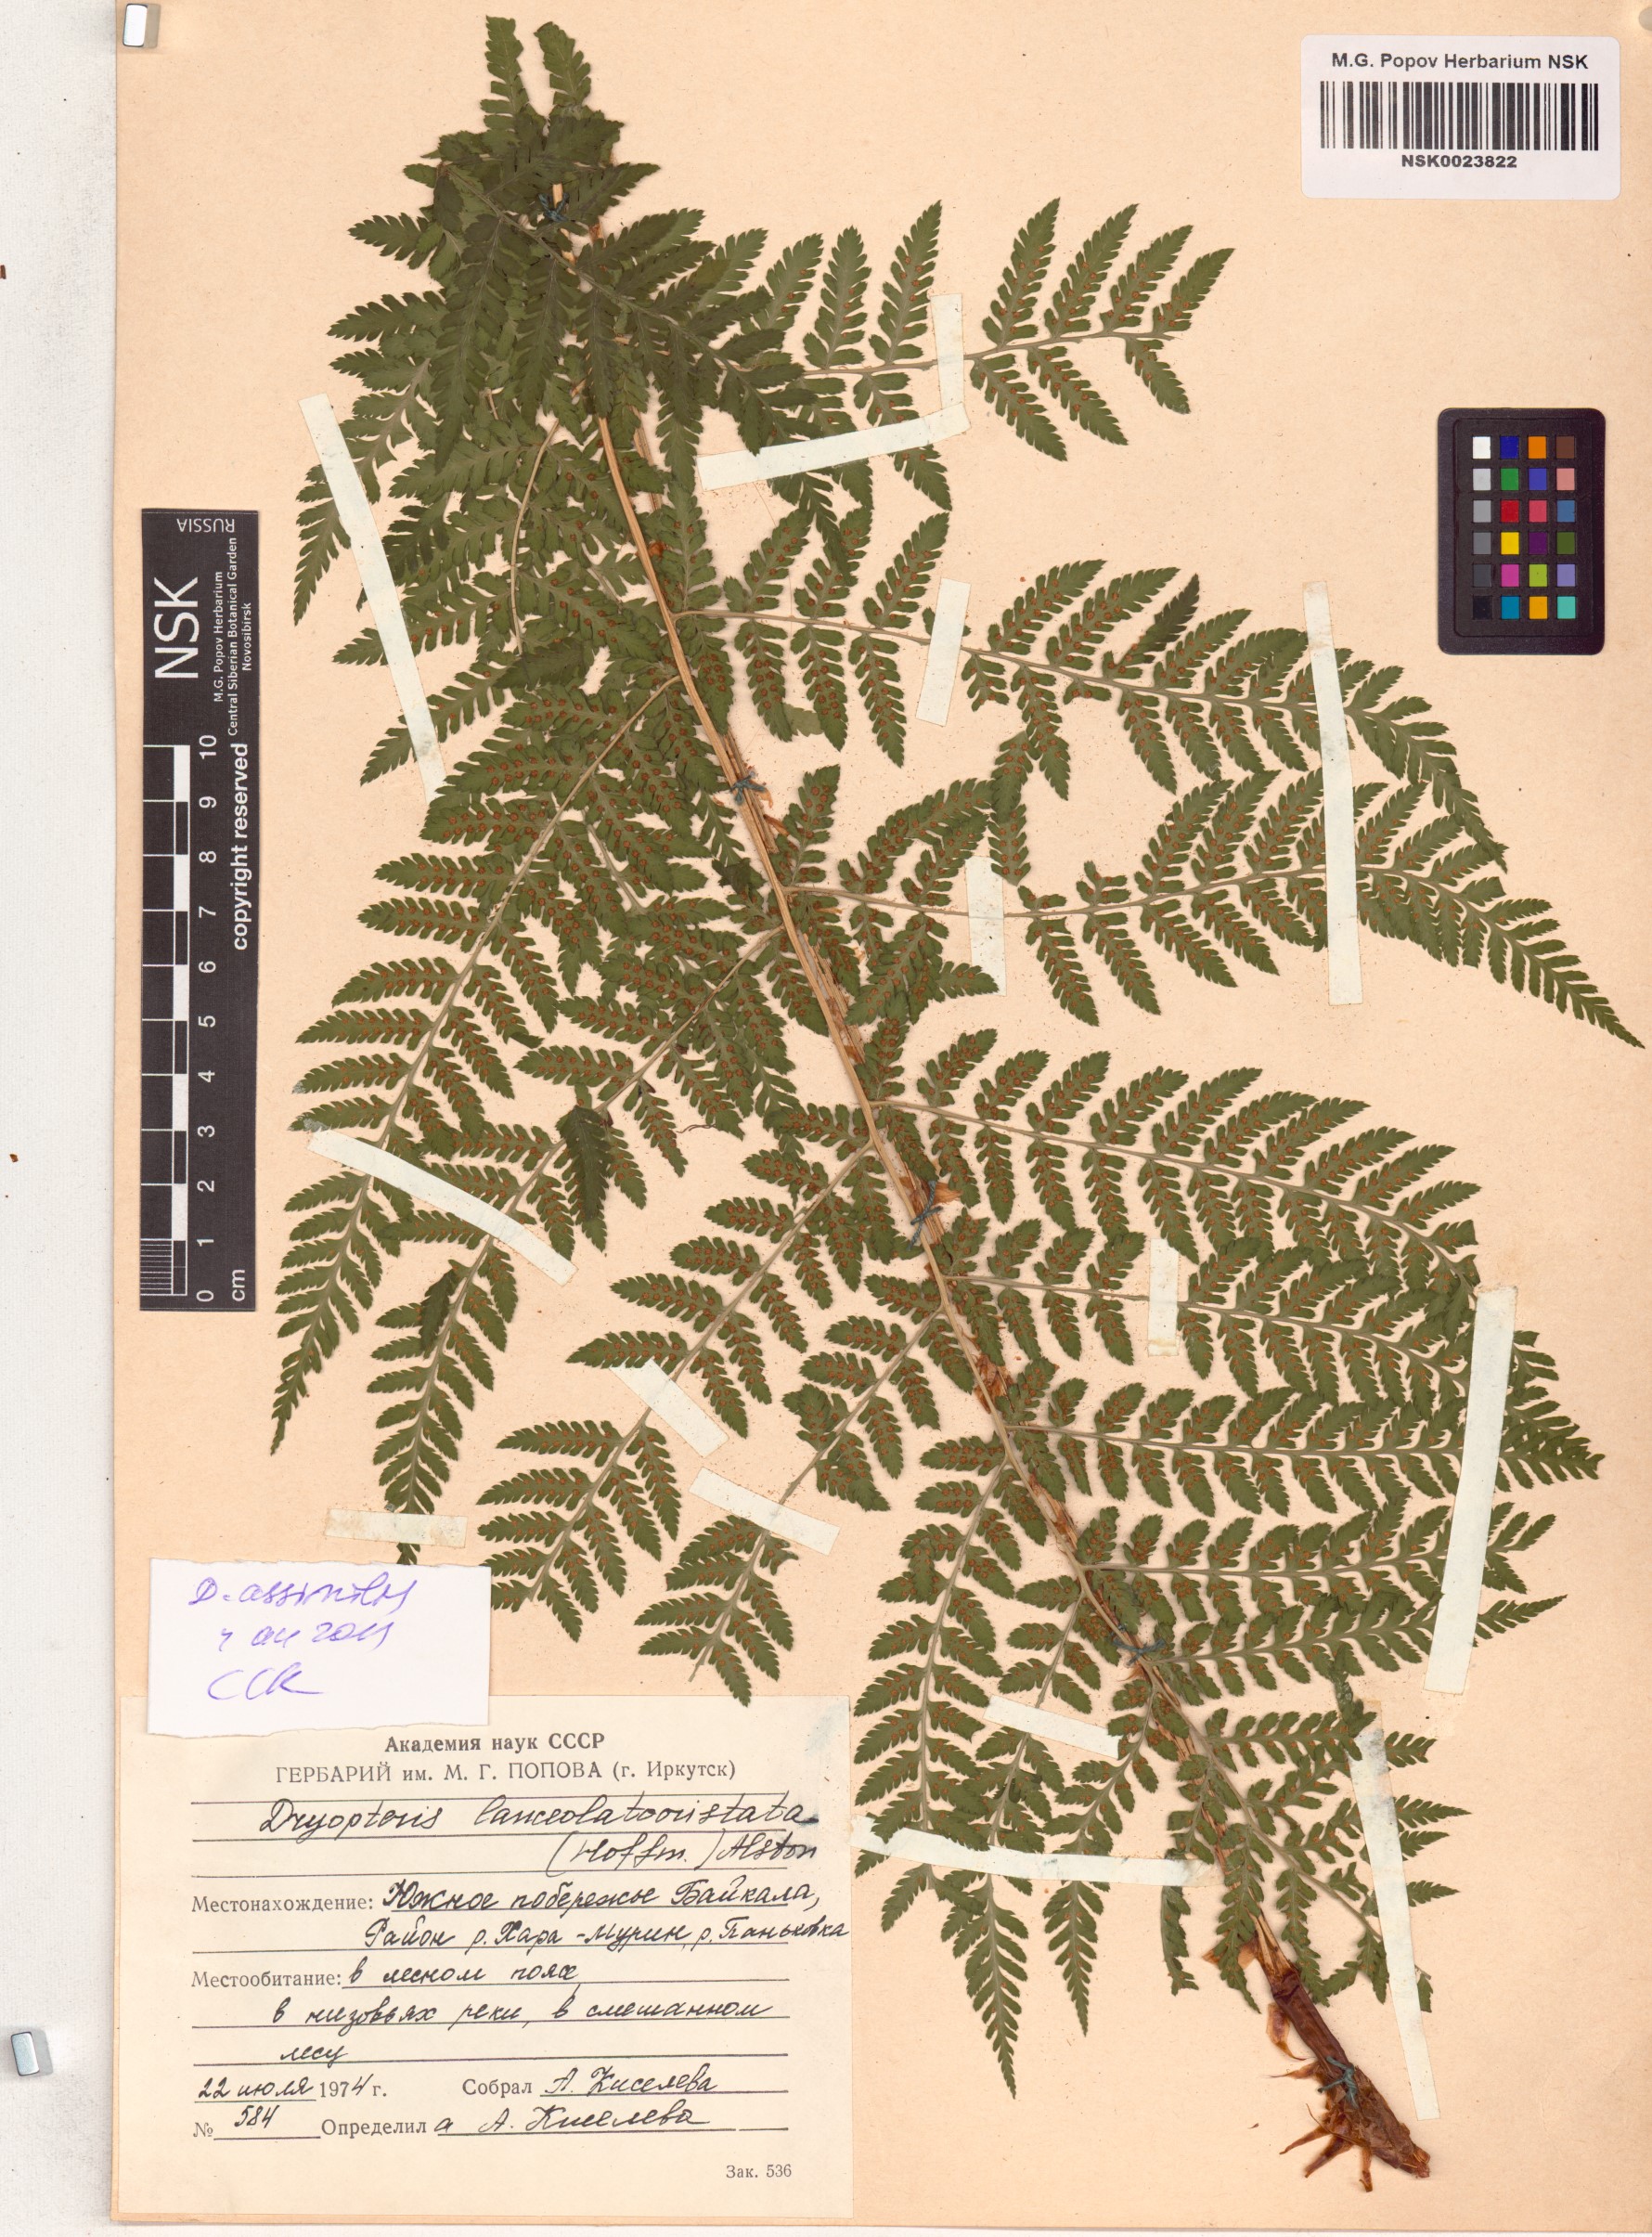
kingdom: Plantae
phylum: Tracheophyta
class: Polypodiopsida
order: Polypodiales
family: Dryopteridaceae
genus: Dryopteris
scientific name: Dryopteris expansa
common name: Northern buckler fern
